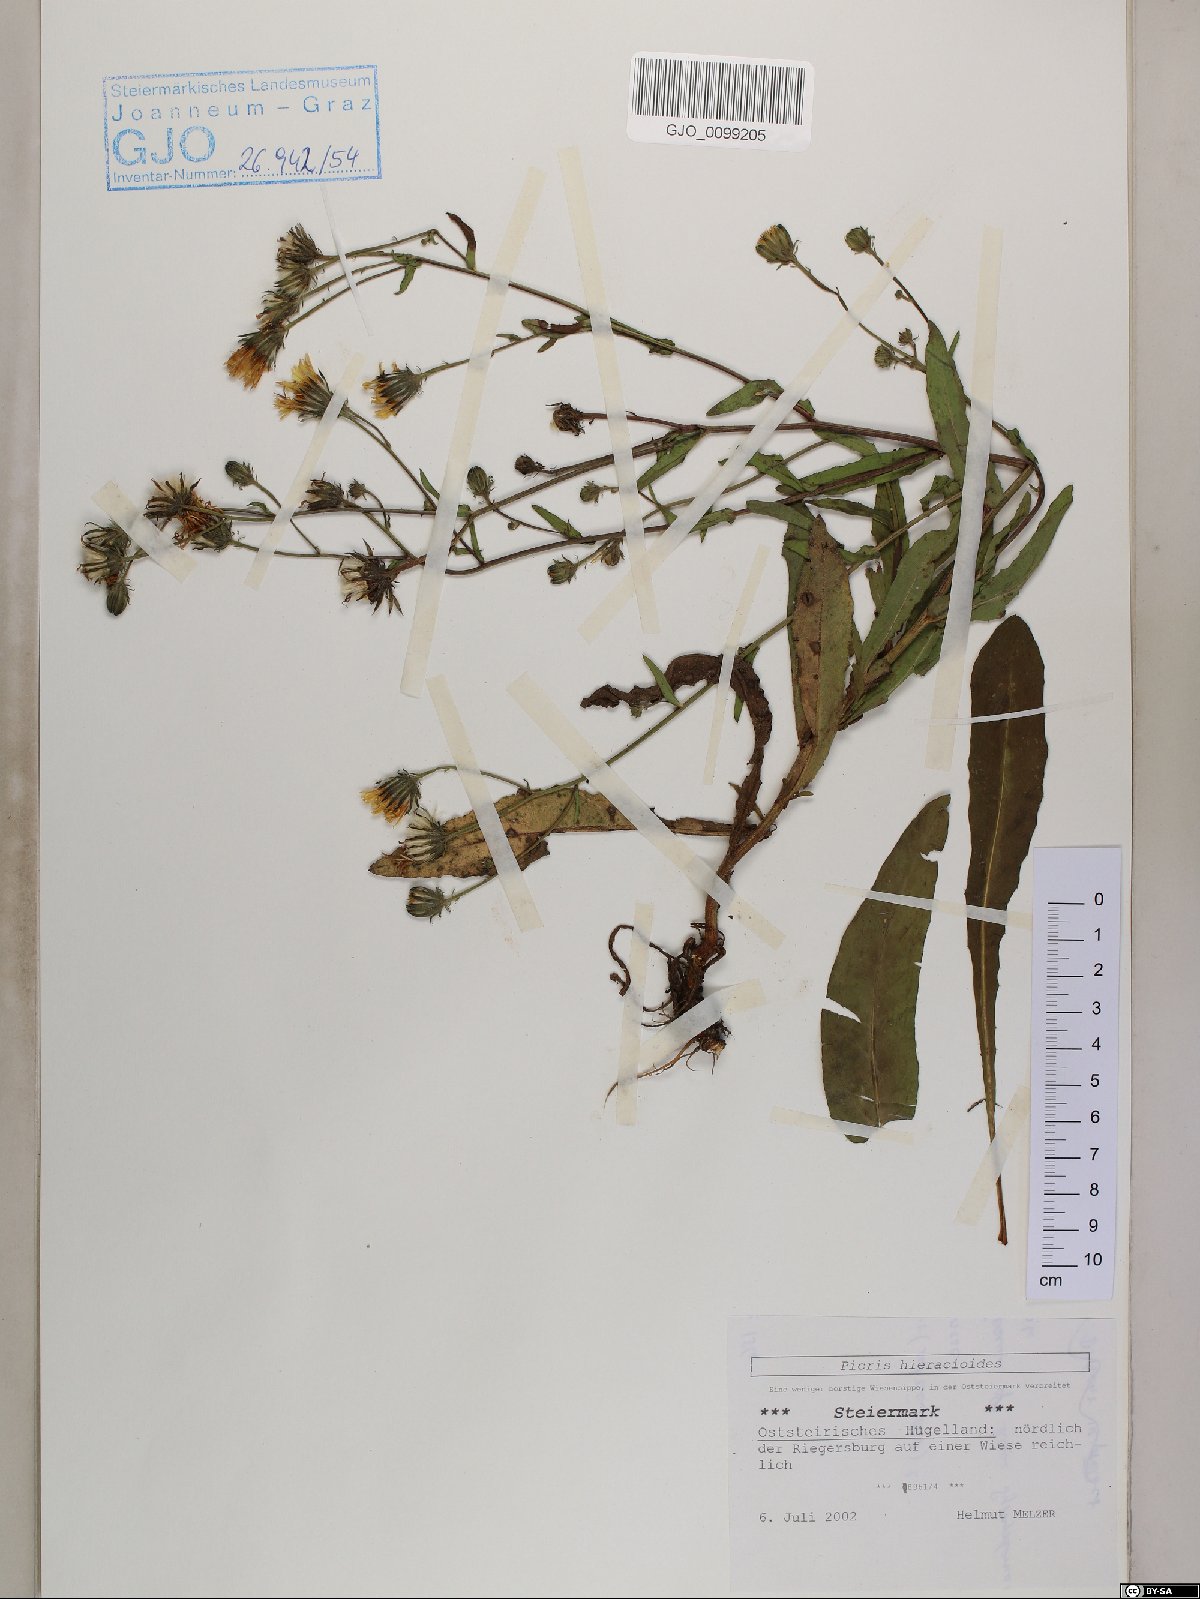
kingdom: Plantae
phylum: Tracheophyta
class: Magnoliopsida
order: Asterales
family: Asteraceae
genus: Picris
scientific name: Picris hieracioides
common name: Hawkweed oxtongue
